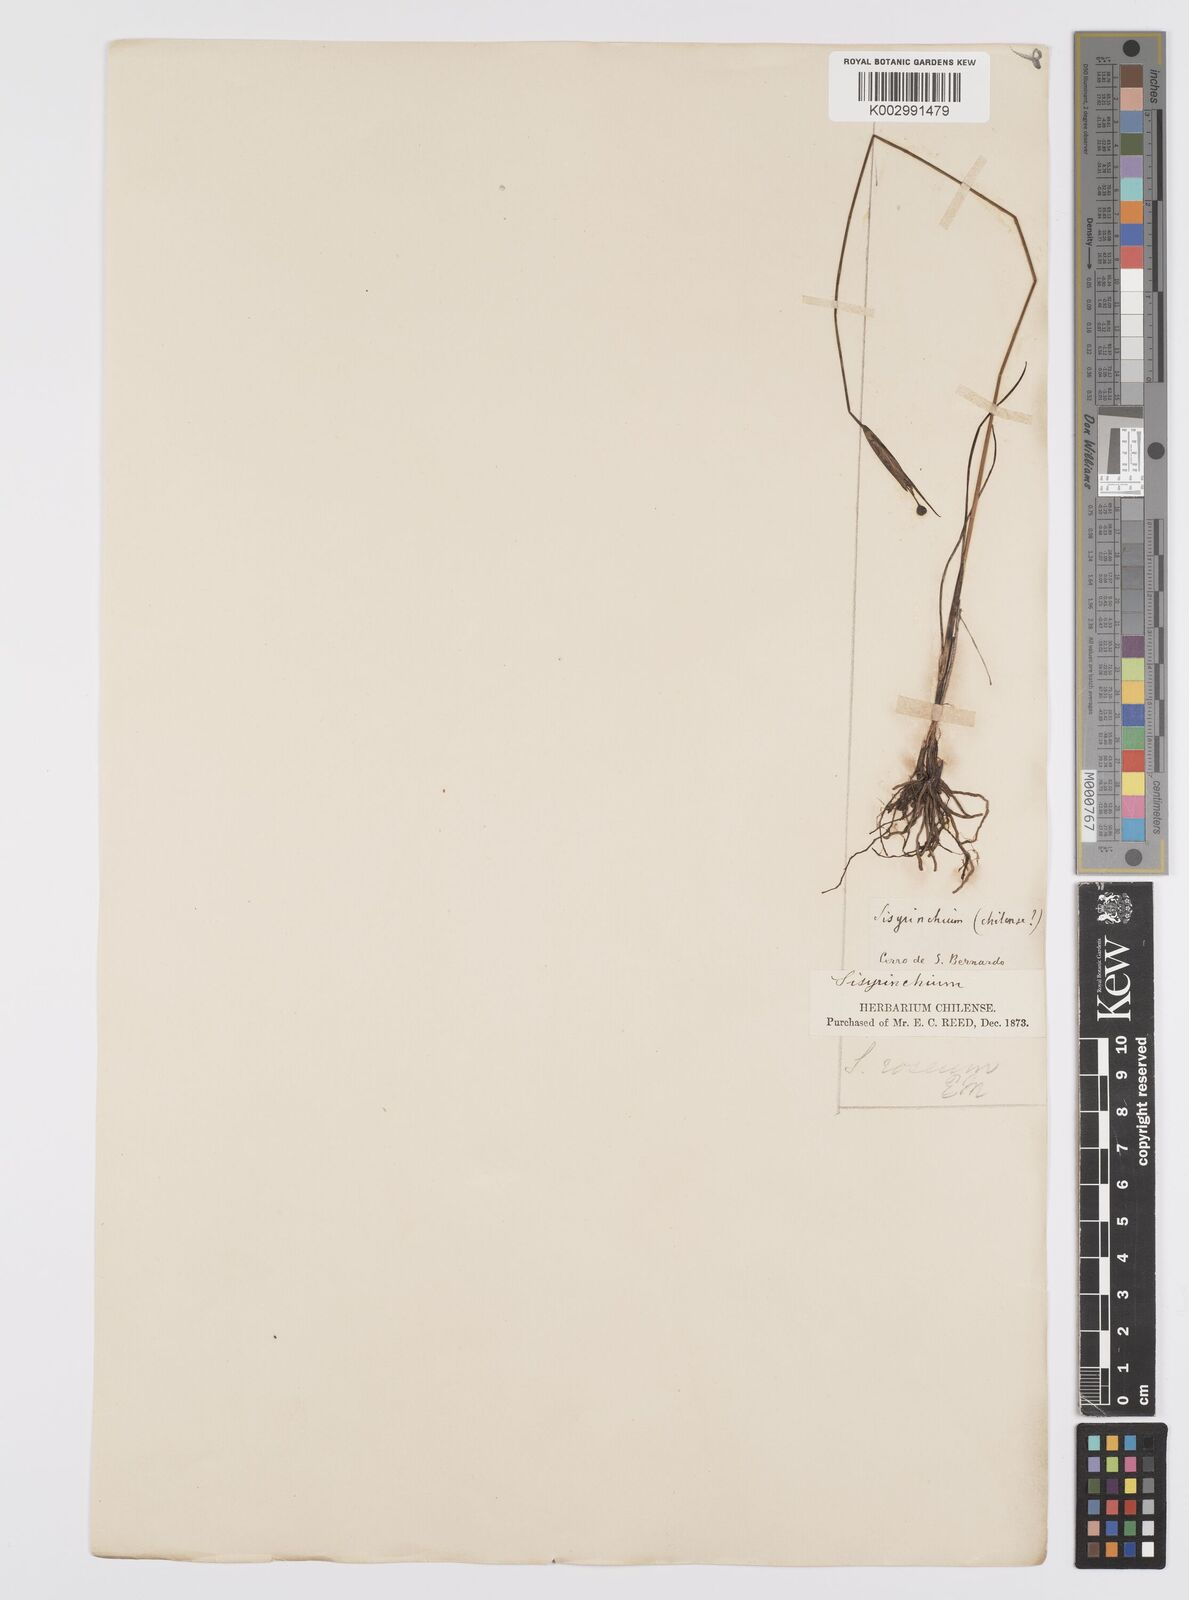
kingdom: Plantae
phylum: Tracheophyta
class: Liliopsida
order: Asparagales
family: Iridaceae
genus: Olsynium
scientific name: Olsynium junceum
